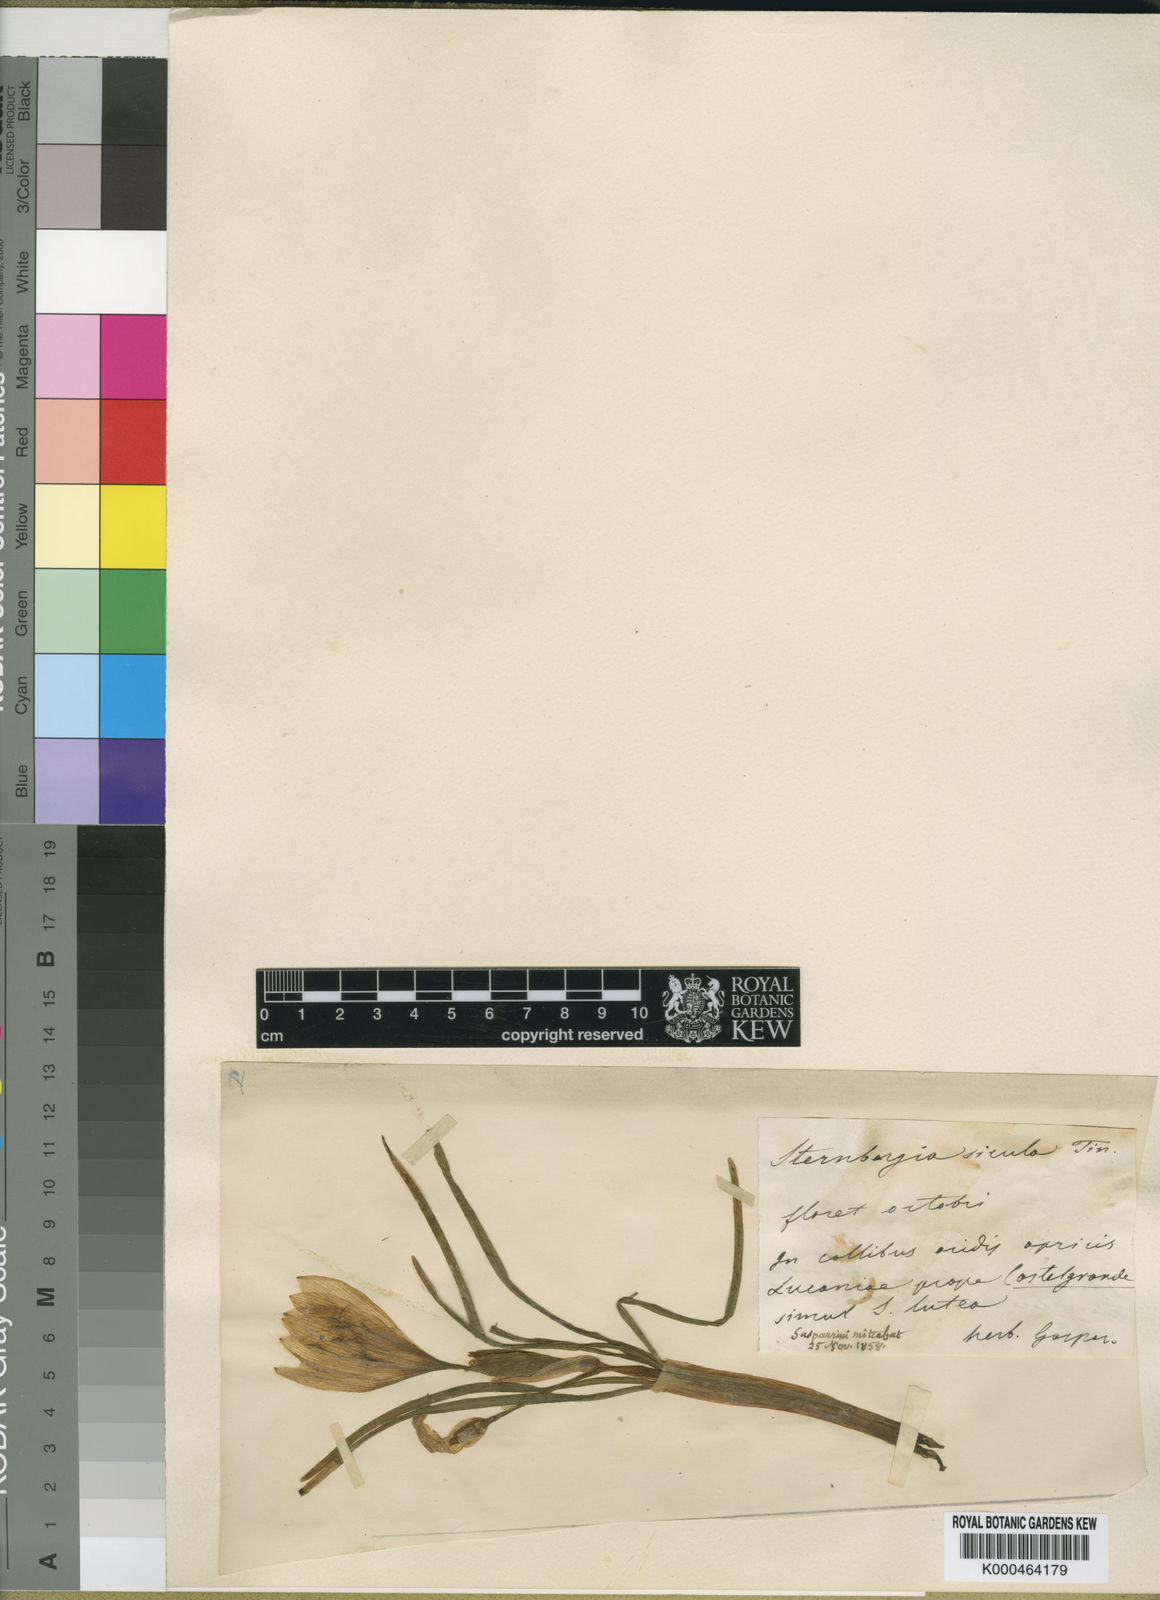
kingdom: Plantae
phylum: Tracheophyta
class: Liliopsida
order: Asparagales
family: Amaryllidaceae
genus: Sternbergia
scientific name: Sternbergia
